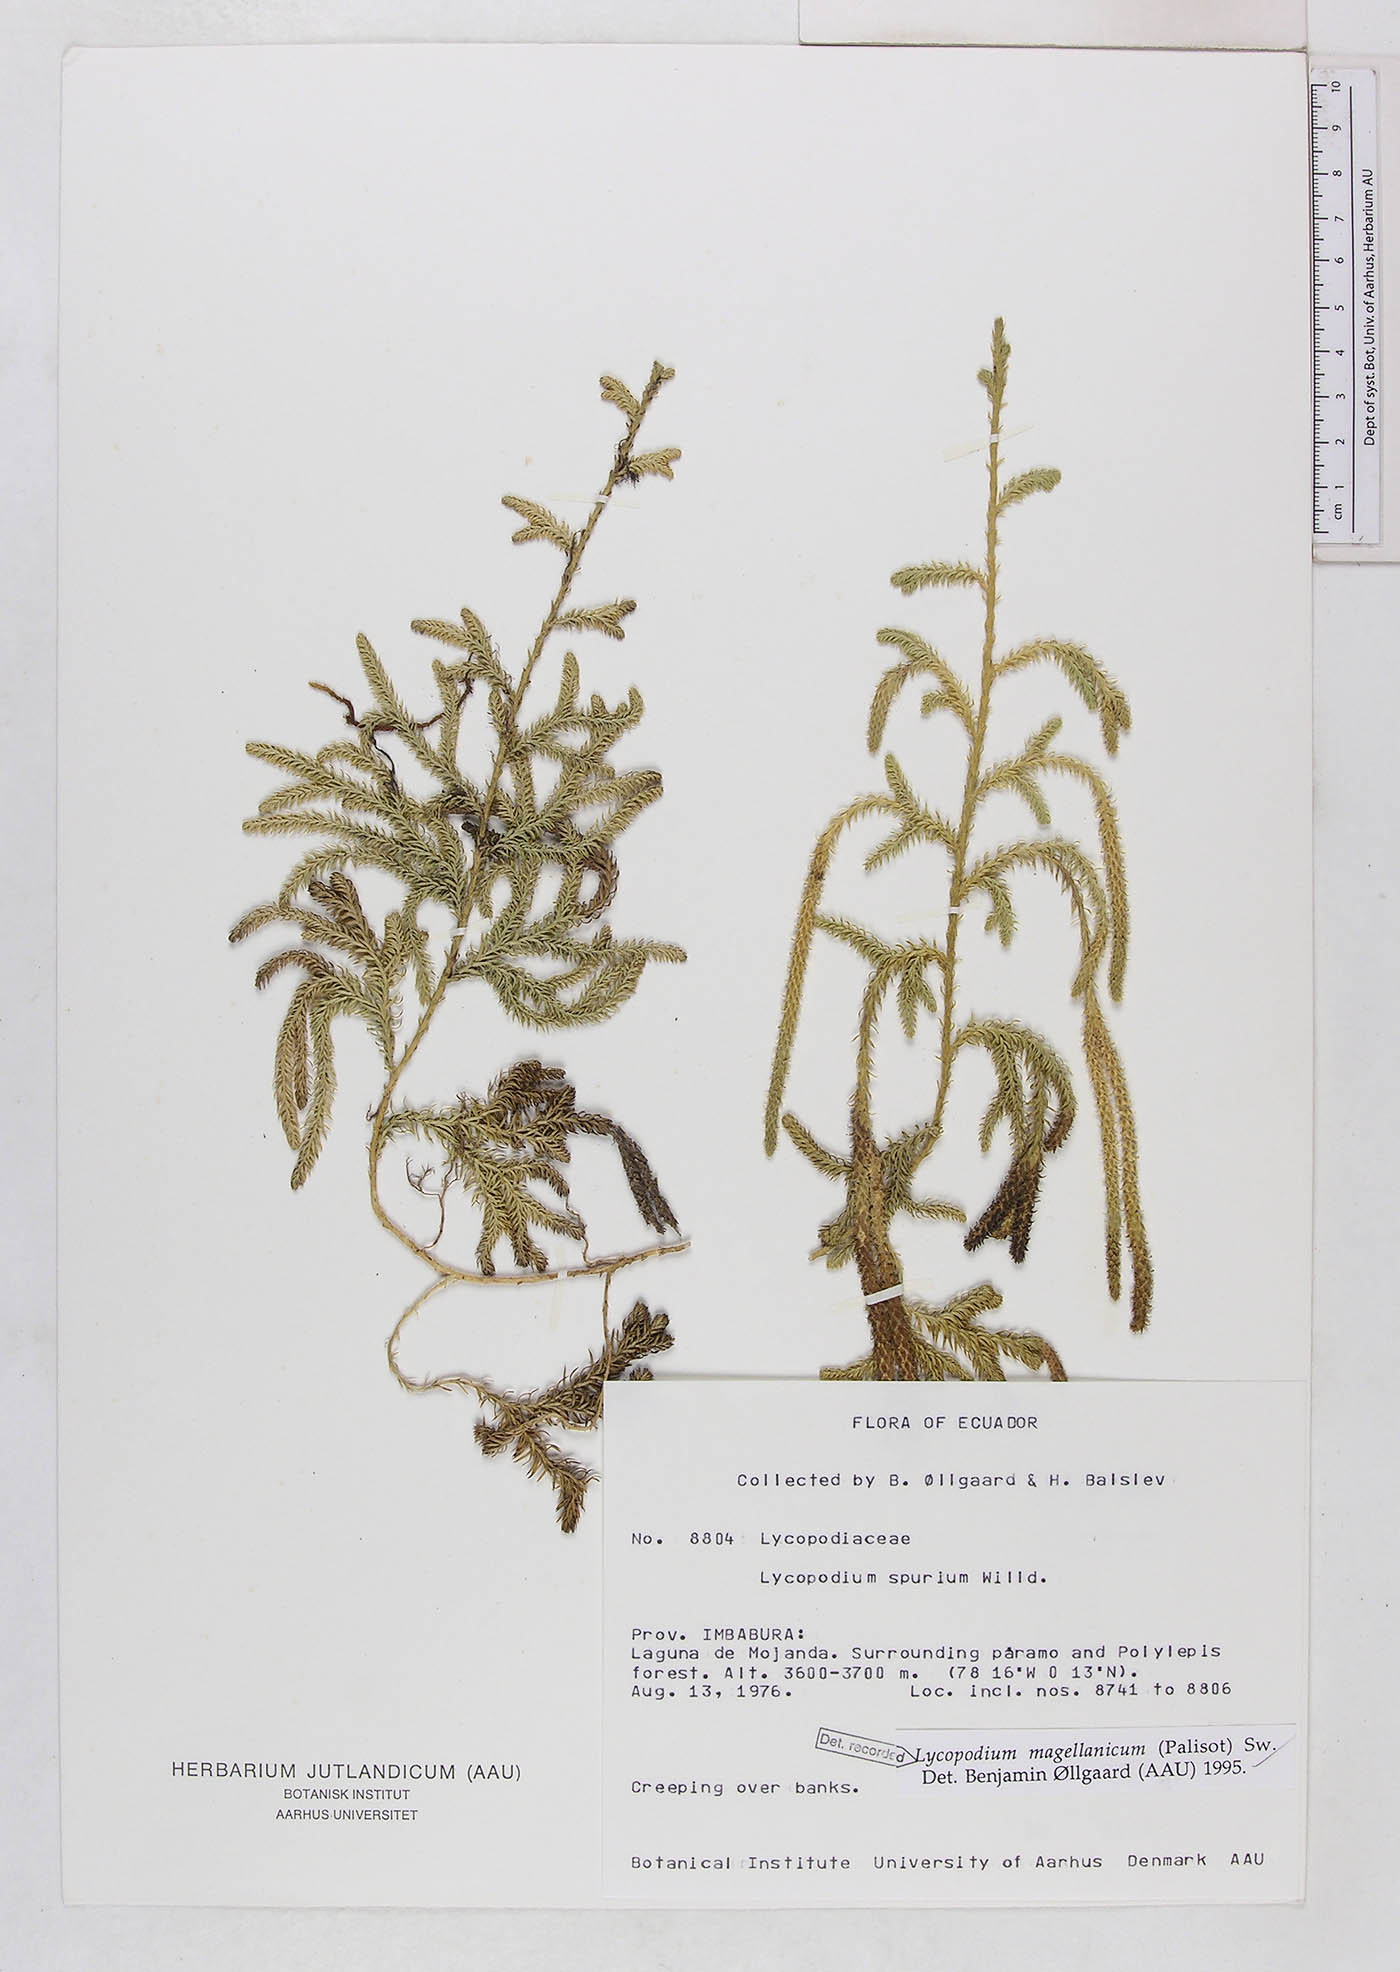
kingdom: Plantae
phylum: Tracheophyta
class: Lycopodiopsida
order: Lycopodiales
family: Lycopodiaceae
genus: Austrolycopodium
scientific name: Austrolycopodium magellanicum
